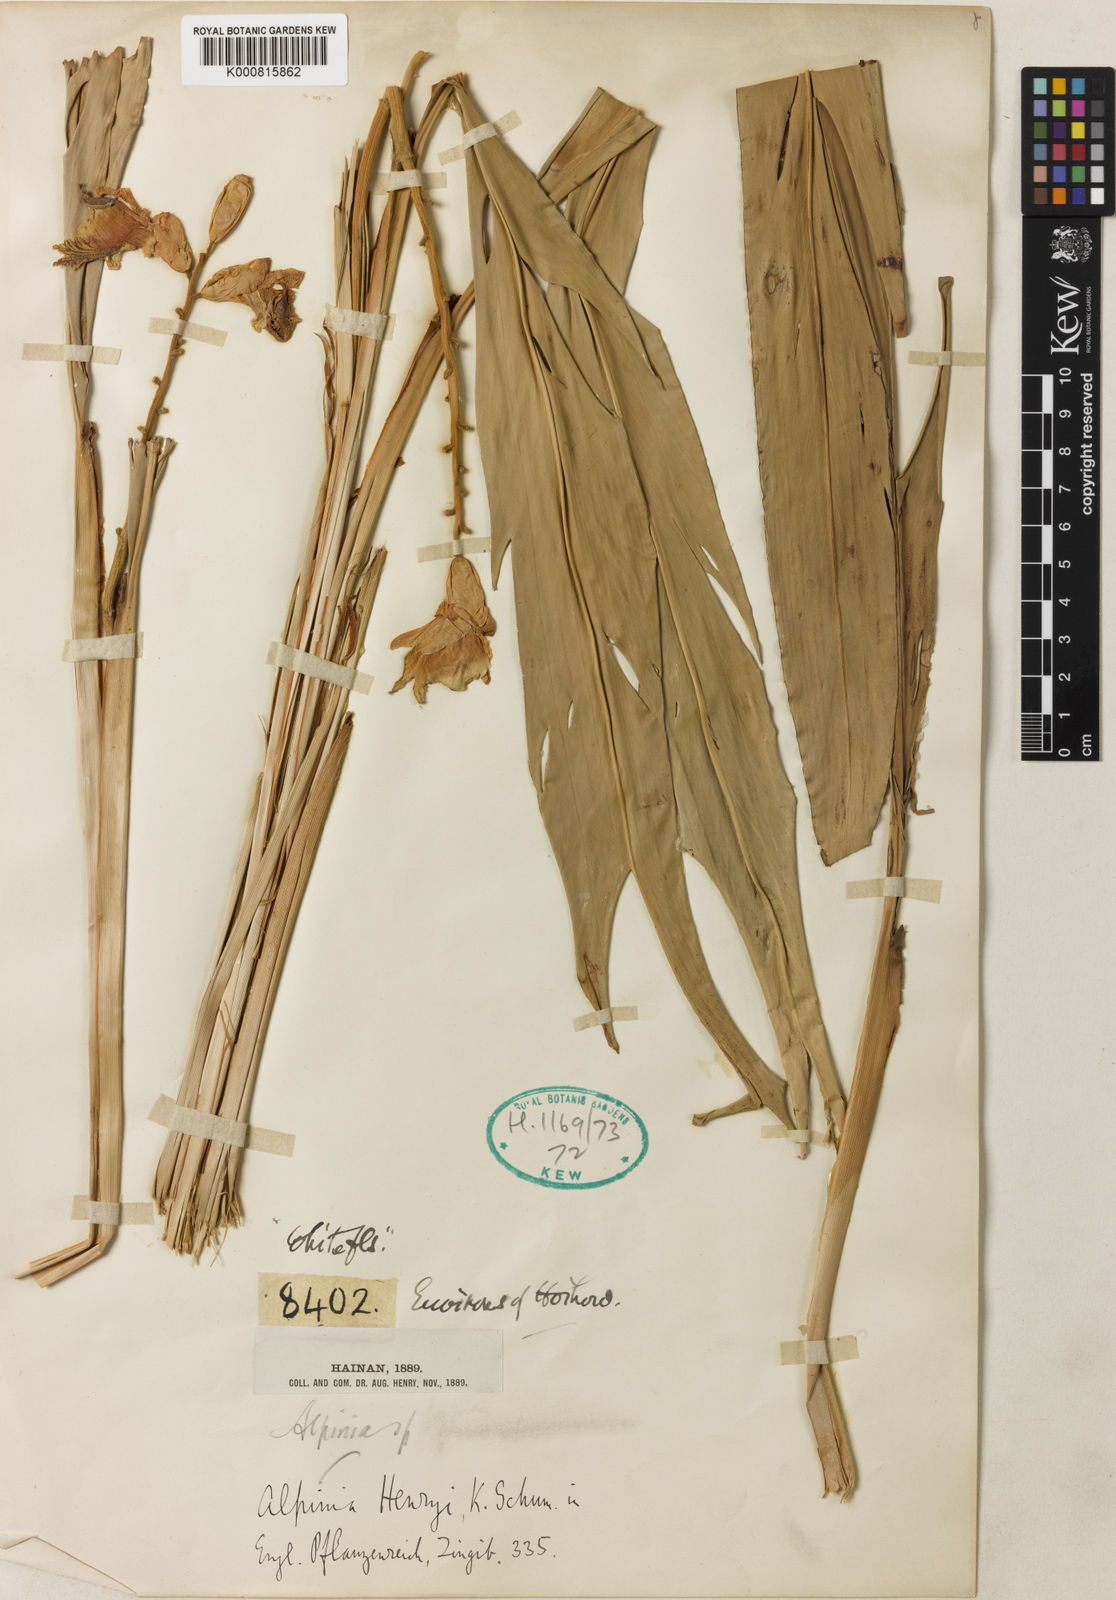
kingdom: Plantae
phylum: Tracheophyta
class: Liliopsida
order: Zingiberales
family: Zingiberaceae
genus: Alpinia
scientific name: Alpinia hainanensis
